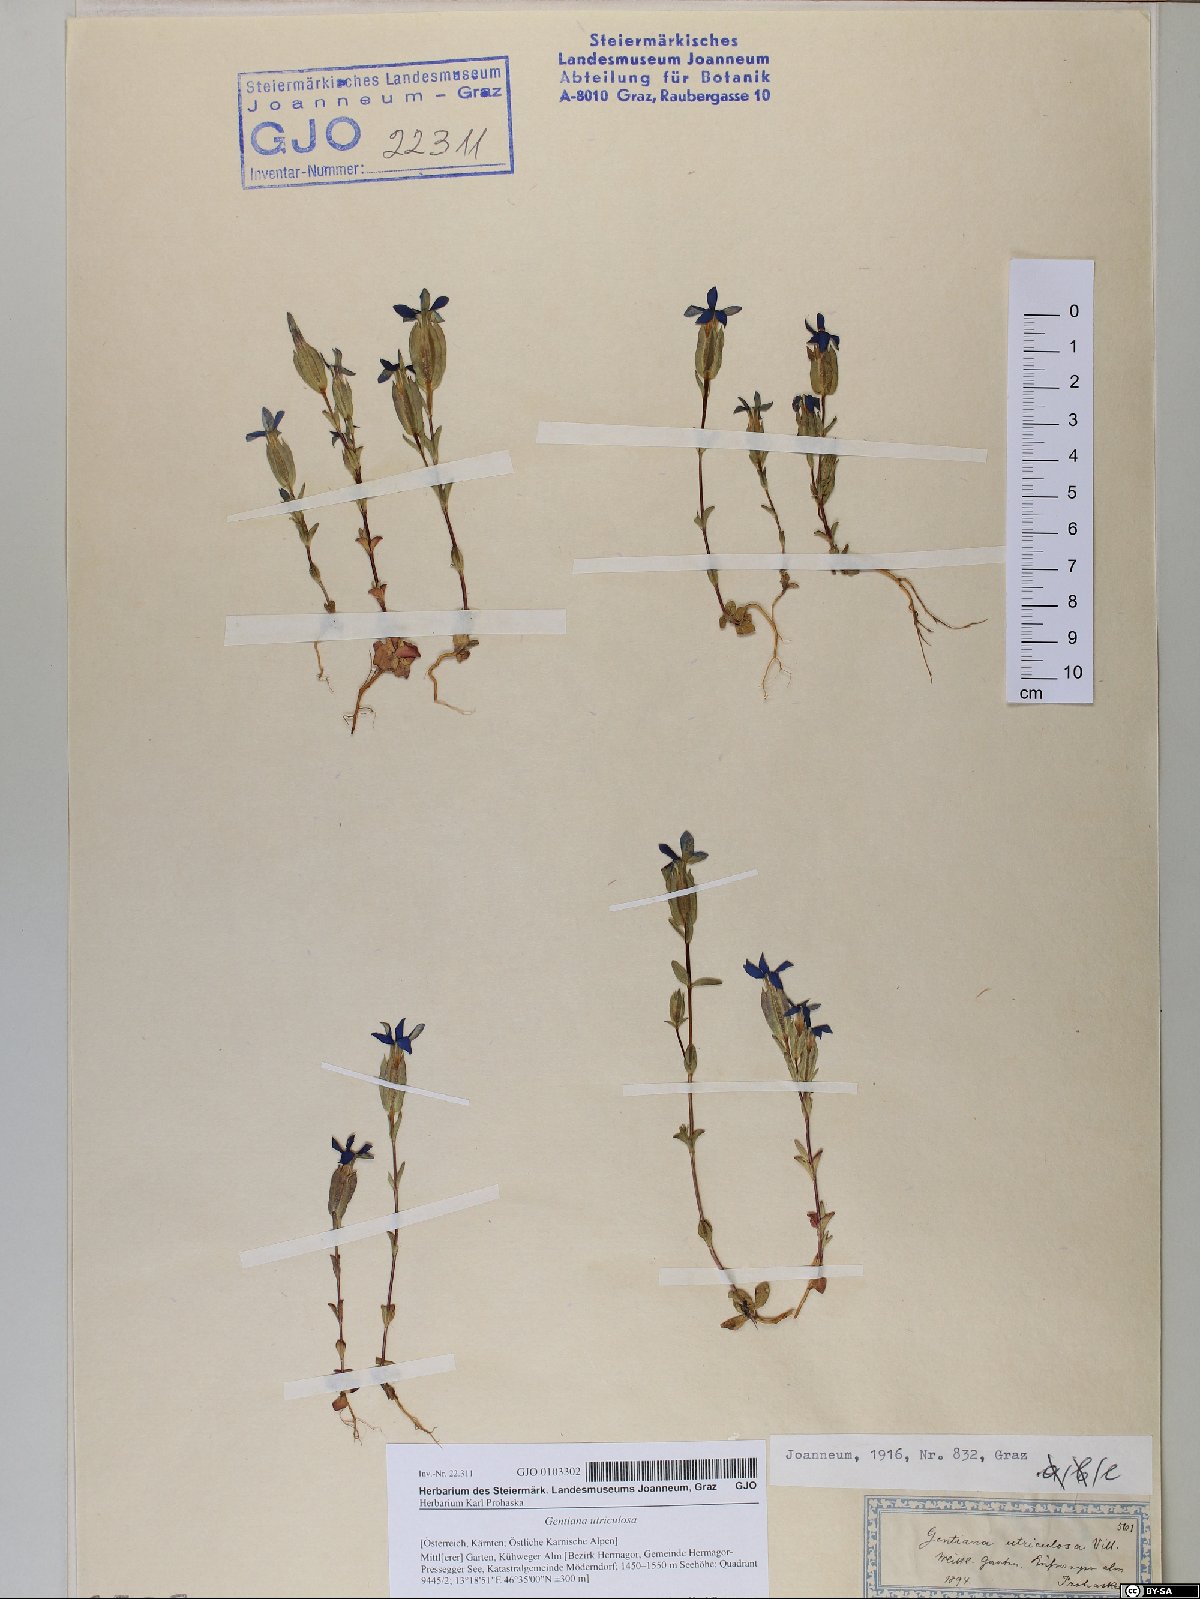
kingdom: Plantae
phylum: Tracheophyta
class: Magnoliopsida
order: Gentianales
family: Gentianaceae
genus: Gentiana
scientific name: Gentiana utriculosa
